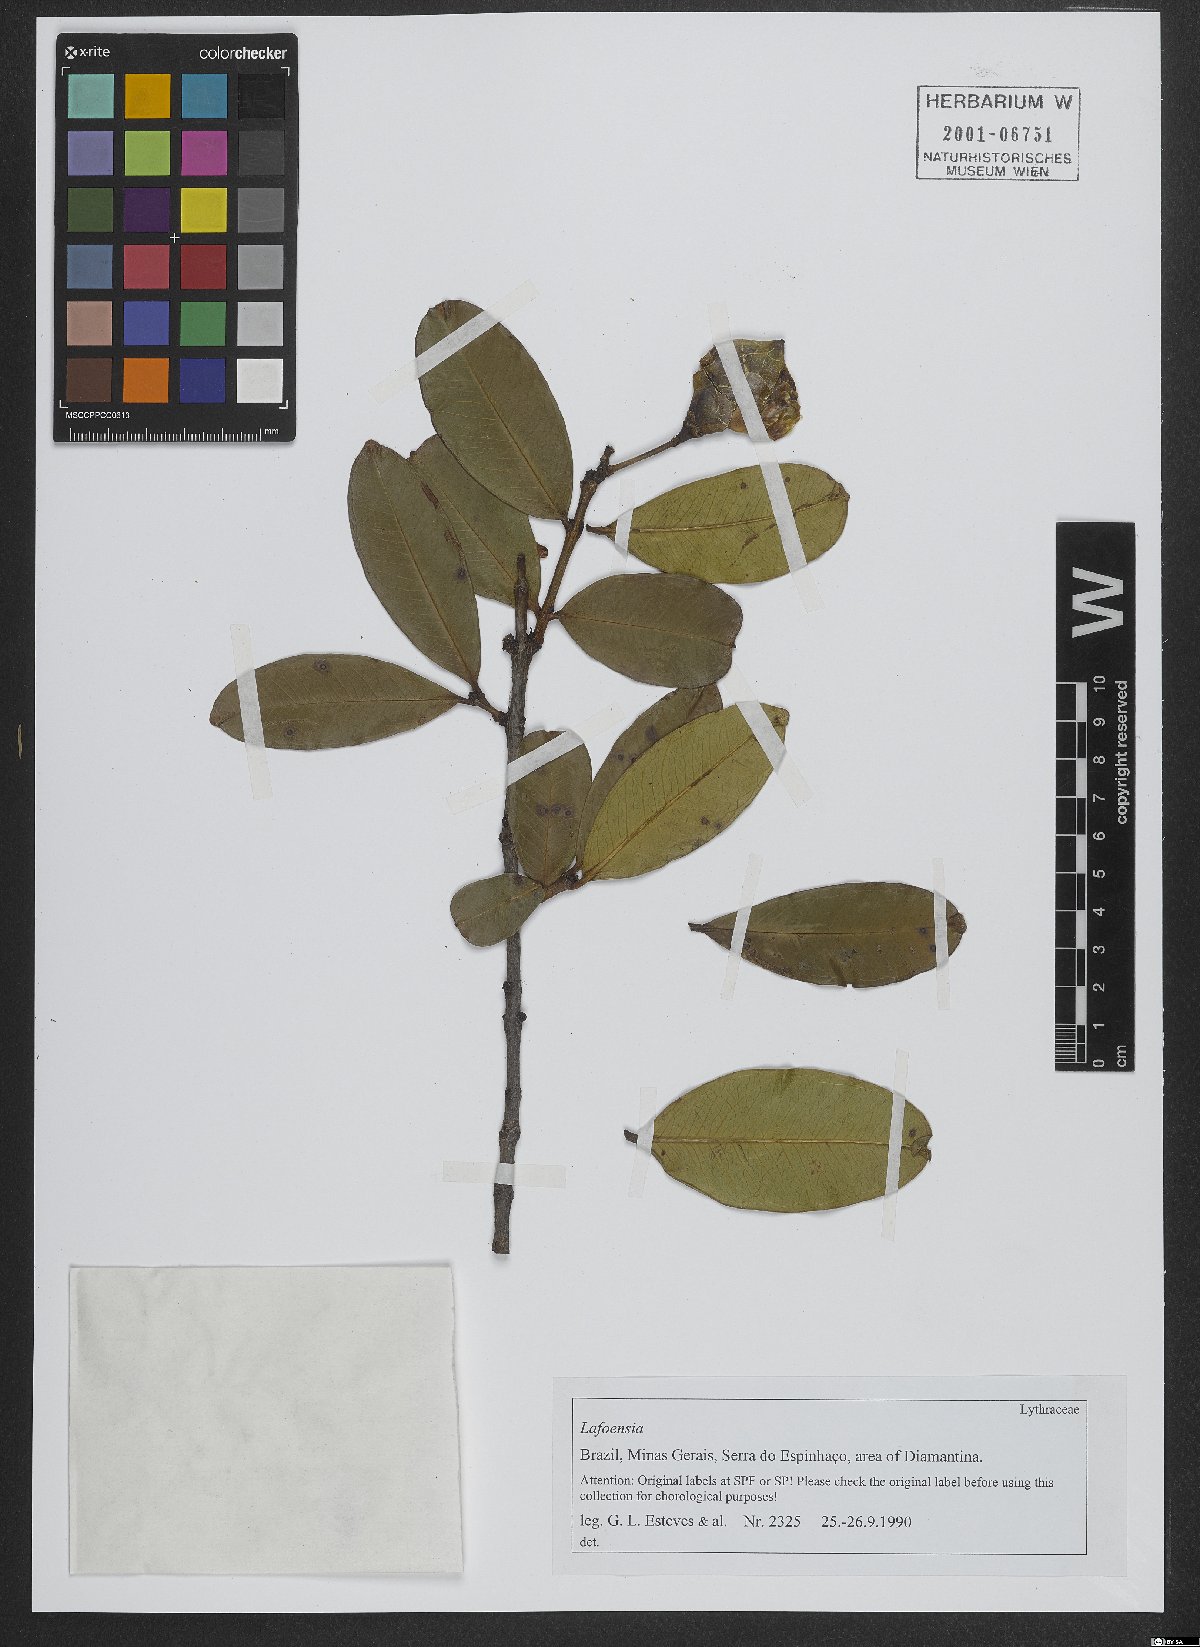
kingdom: Plantae
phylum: Tracheophyta
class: Magnoliopsida
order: Myrtales
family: Lythraceae
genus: Lafoensia
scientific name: Lafoensia pacari
